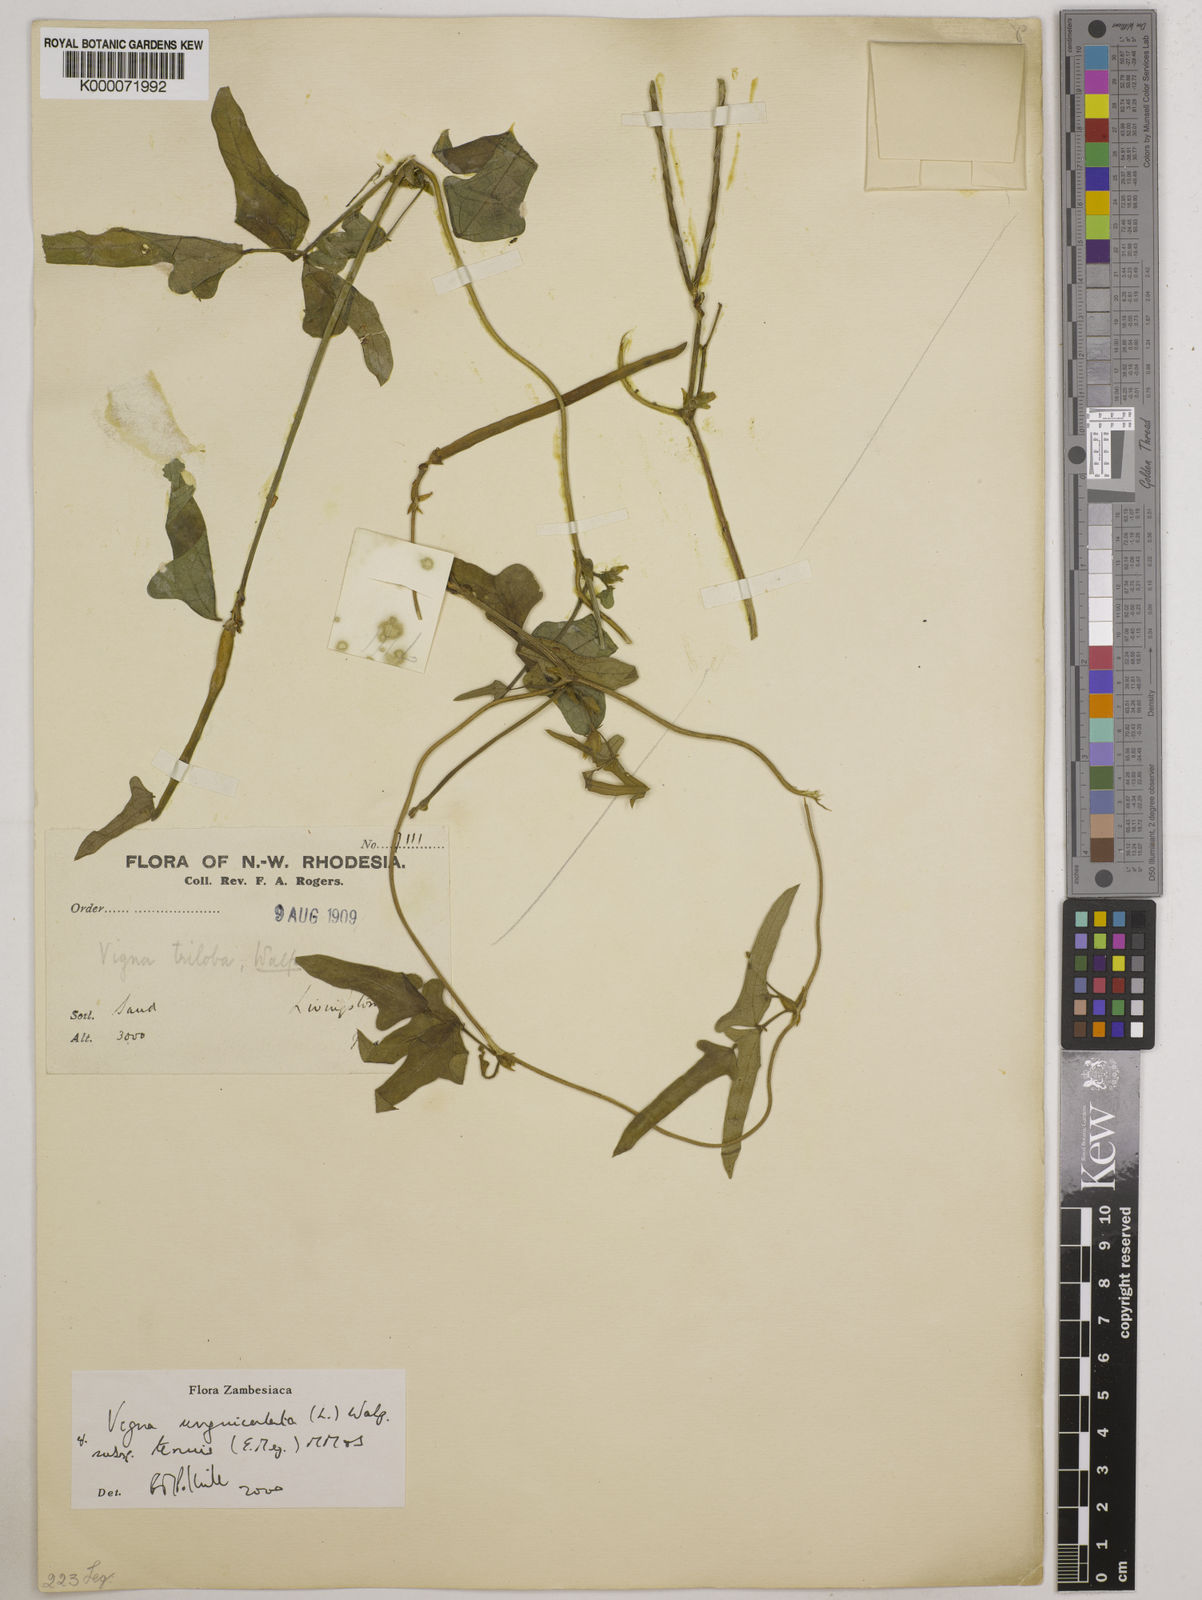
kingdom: Plantae
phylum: Tracheophyta
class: Magnoliopsida
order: Fabales
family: Fabaceae
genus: Vigna
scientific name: Vigna unguiculata
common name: Cowpea
